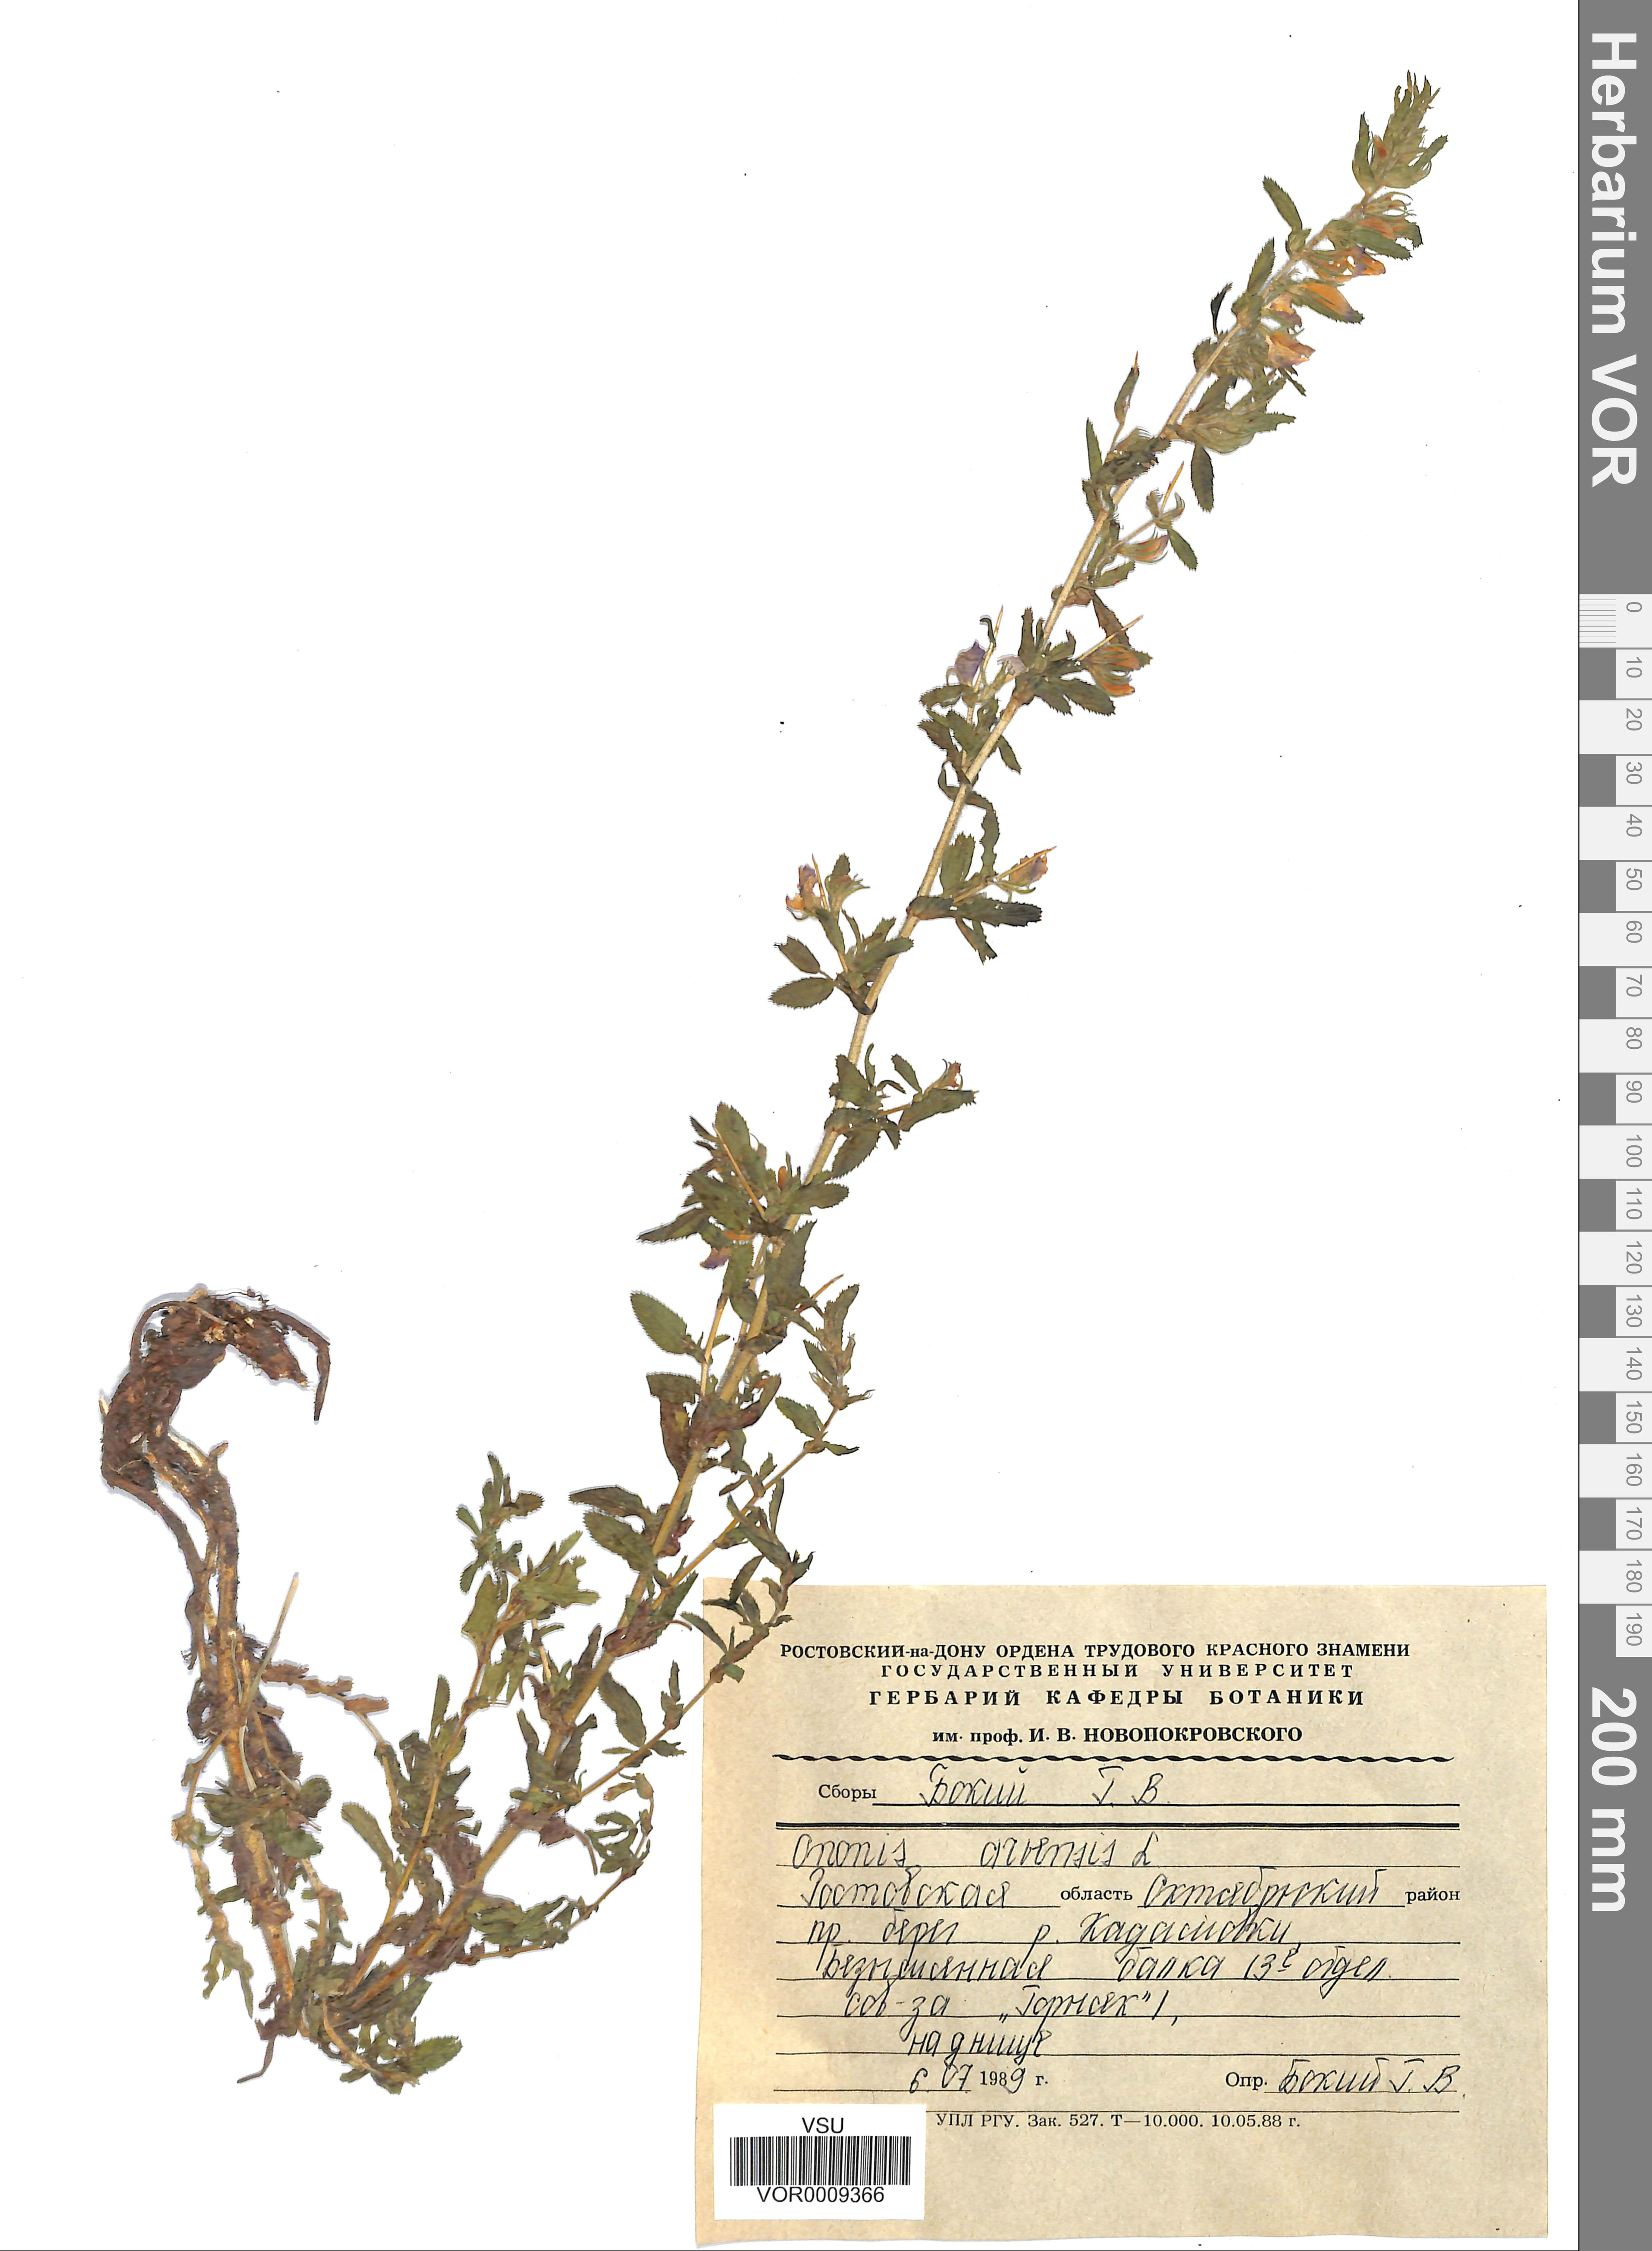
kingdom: Plantae
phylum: Tracheophyta
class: Magnoliopsida
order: Fabales
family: Fabaceae
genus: Ononis
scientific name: Ononis arvensis
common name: Field restharrow
